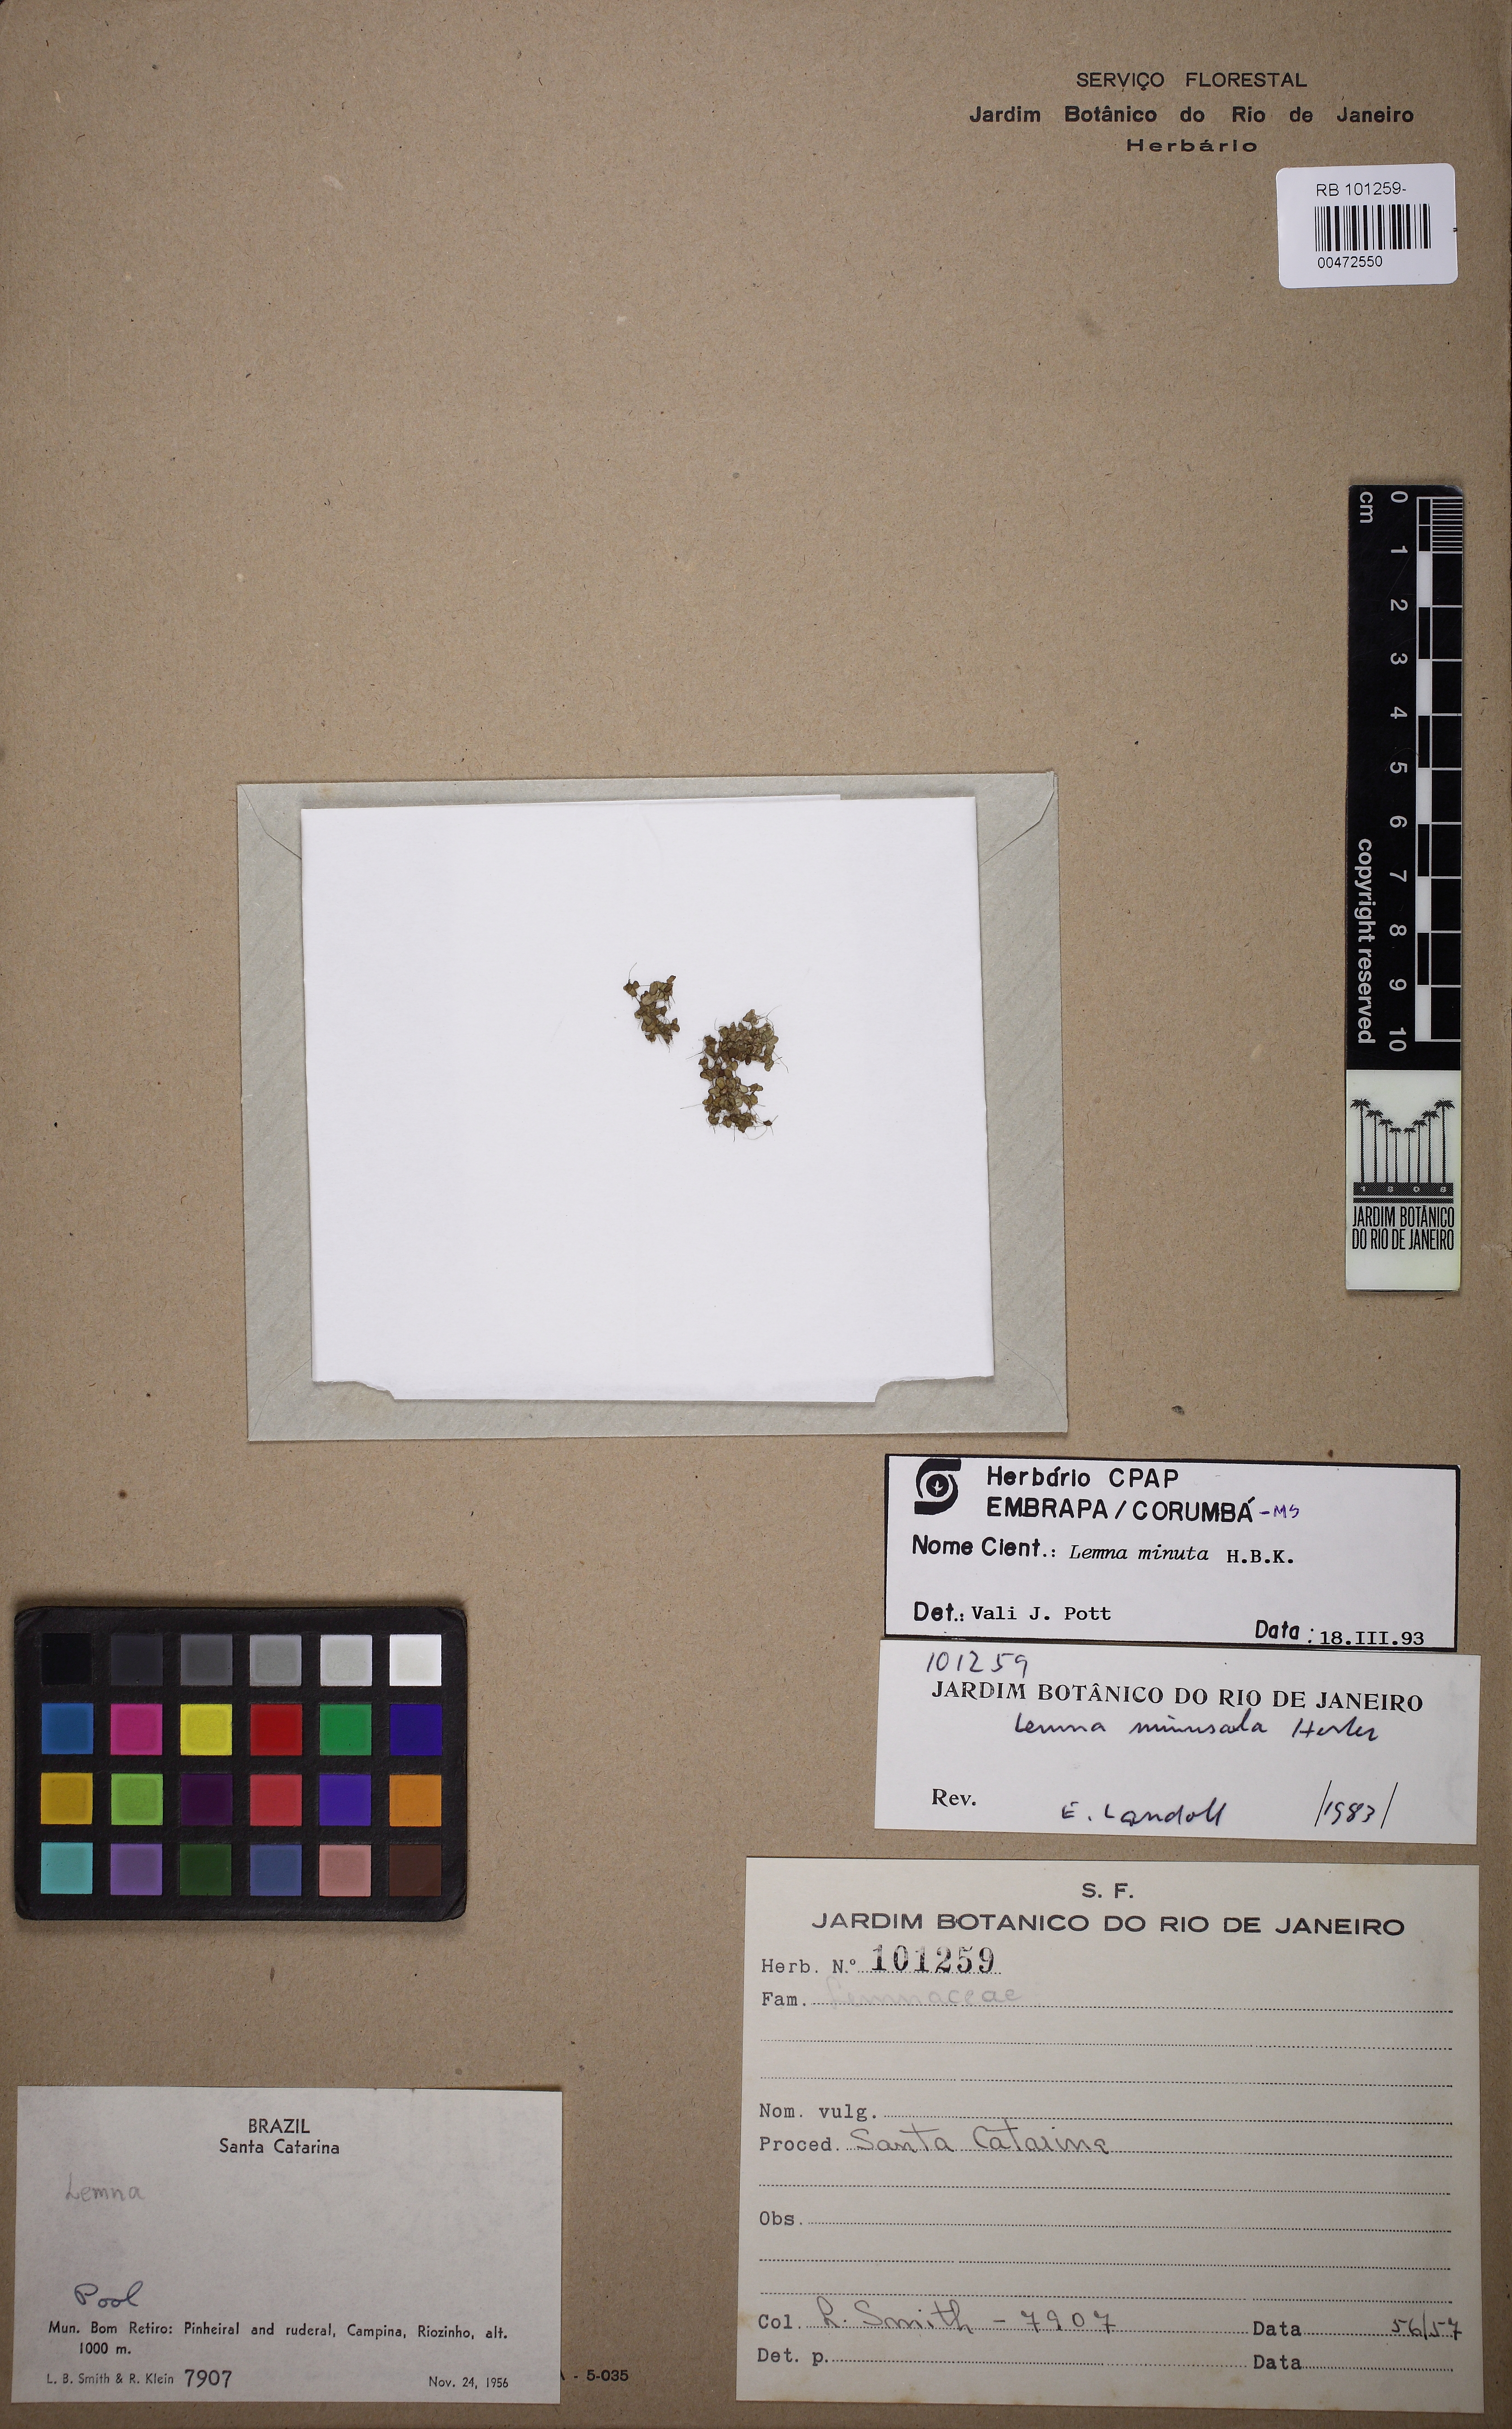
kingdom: Plantae
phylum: Tracheophyta
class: Liliopsida
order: Alismatales
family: Araceae
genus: Lemna
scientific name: Lemna minuta
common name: Least duckweed
